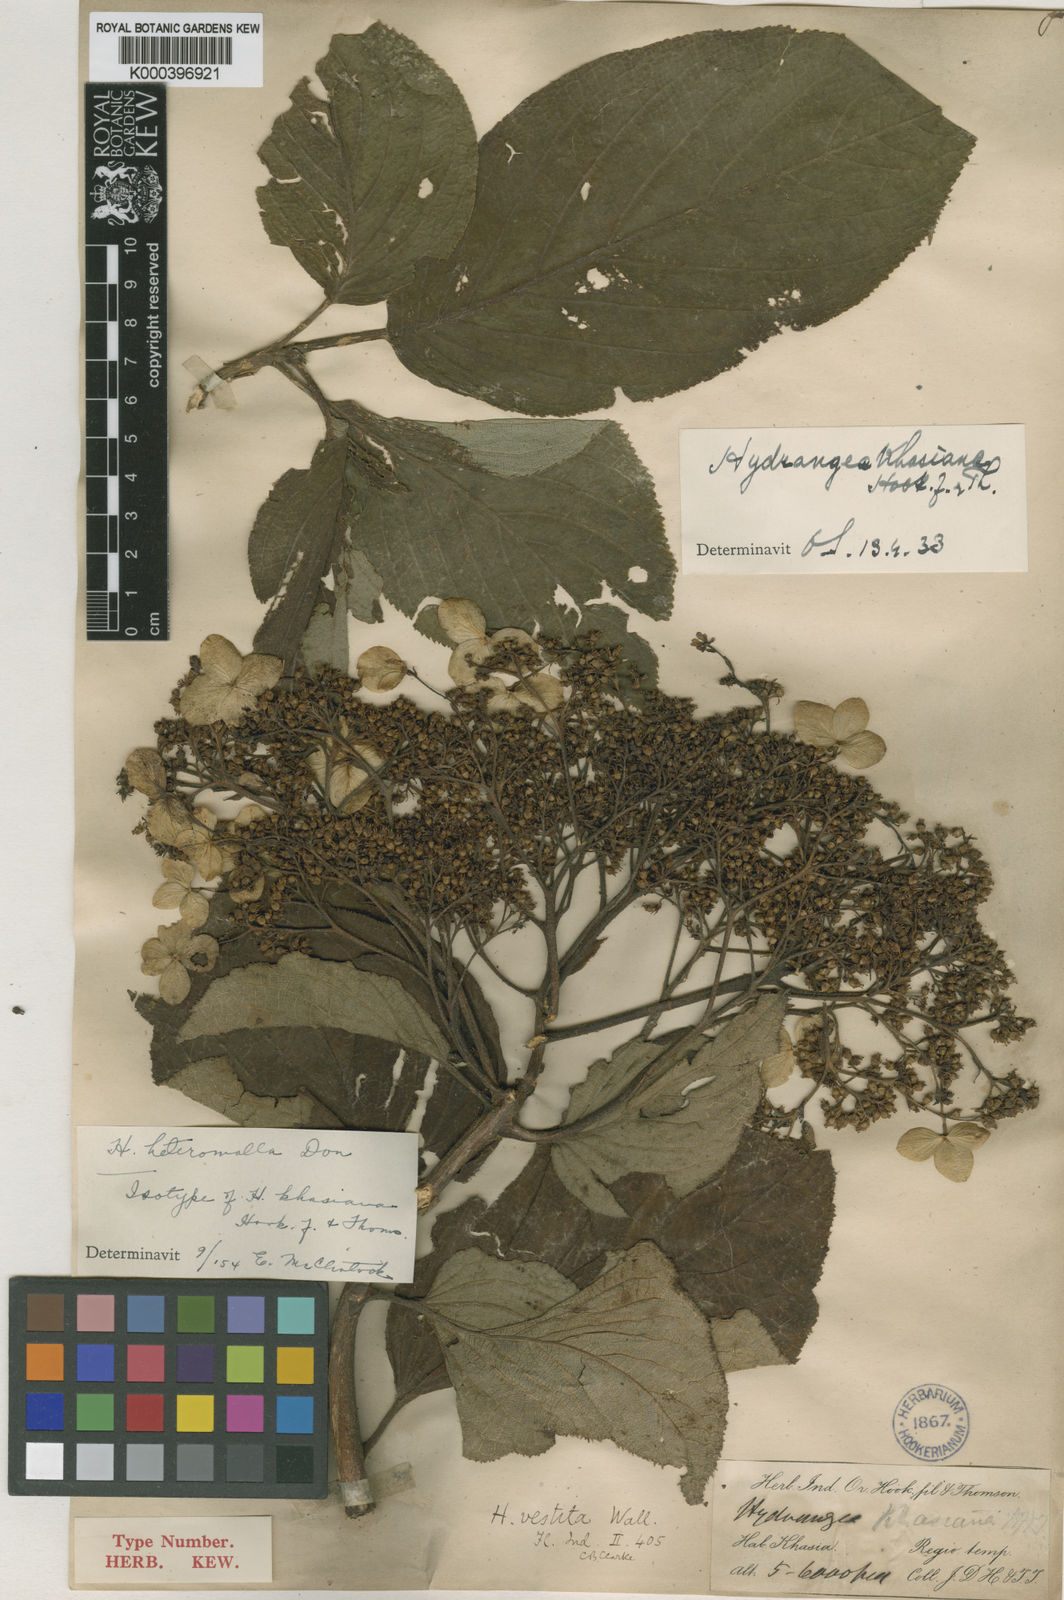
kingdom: Plantae
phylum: Tracheophyta
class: Magnoliopsida
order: Cornales
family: Hydrangeaceae
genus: Hydrangea
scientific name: Hydrangea heteromalla
